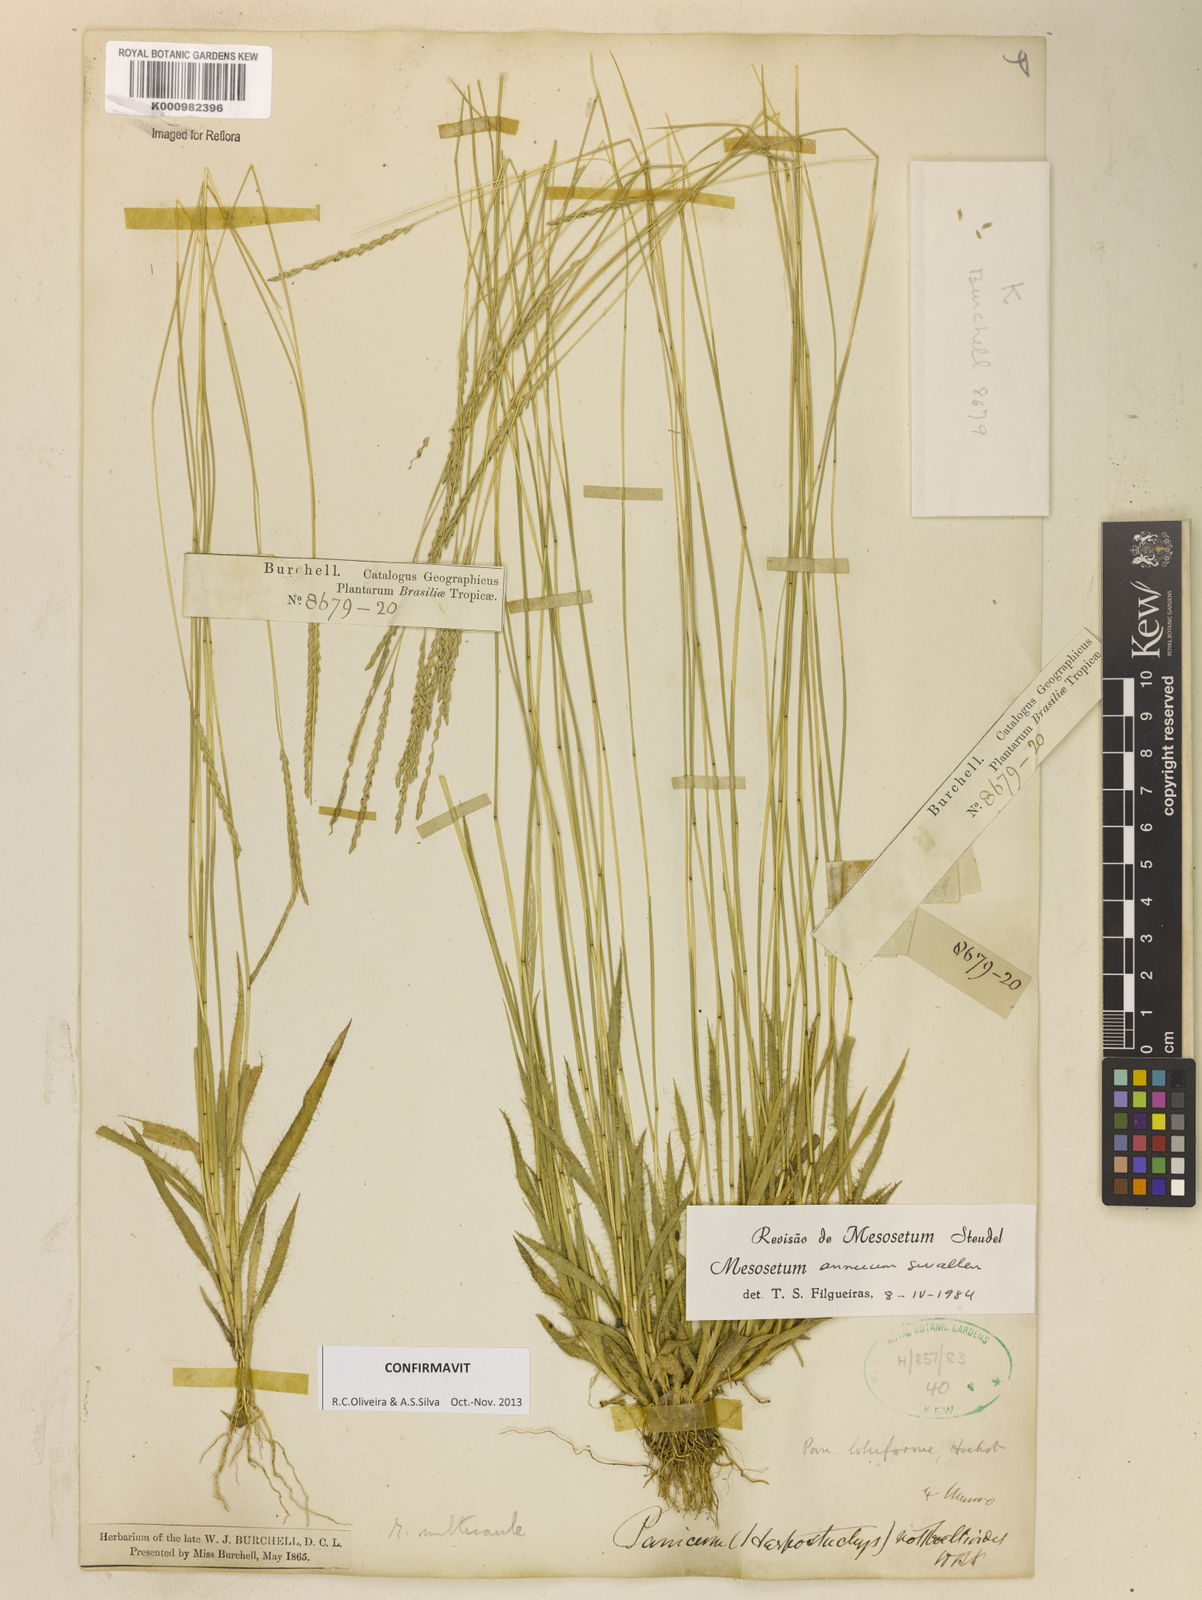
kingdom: Plantae
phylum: Tracheophyta
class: Liliopsida
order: Poales
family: Poaceae
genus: Mesosetum
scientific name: Mesosetum annuum
